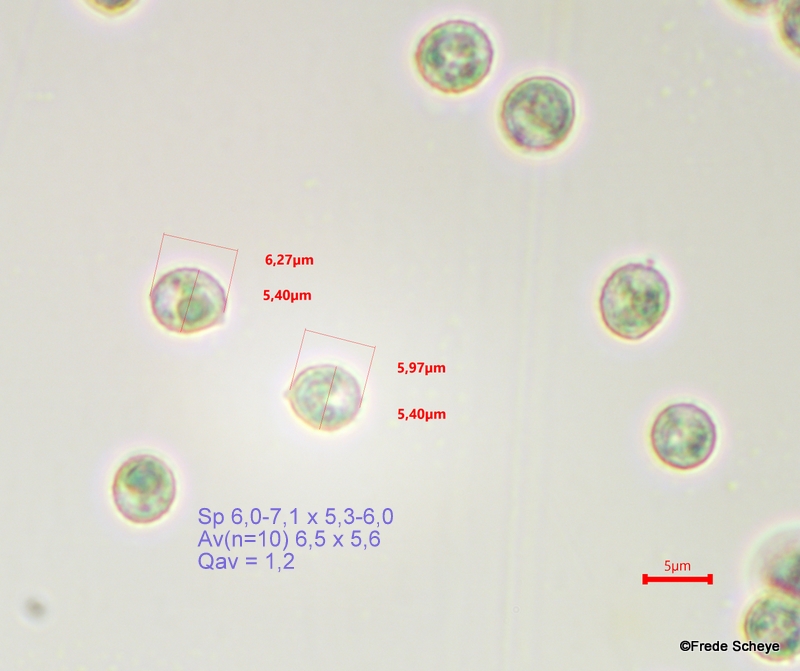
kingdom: Fungi
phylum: Basidiomycota
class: Agaricomycetes
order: Agaricales
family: Crepidotaceae
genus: Crepidotus
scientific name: Crepidotus cesatii
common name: almindelig muslingesvamp
